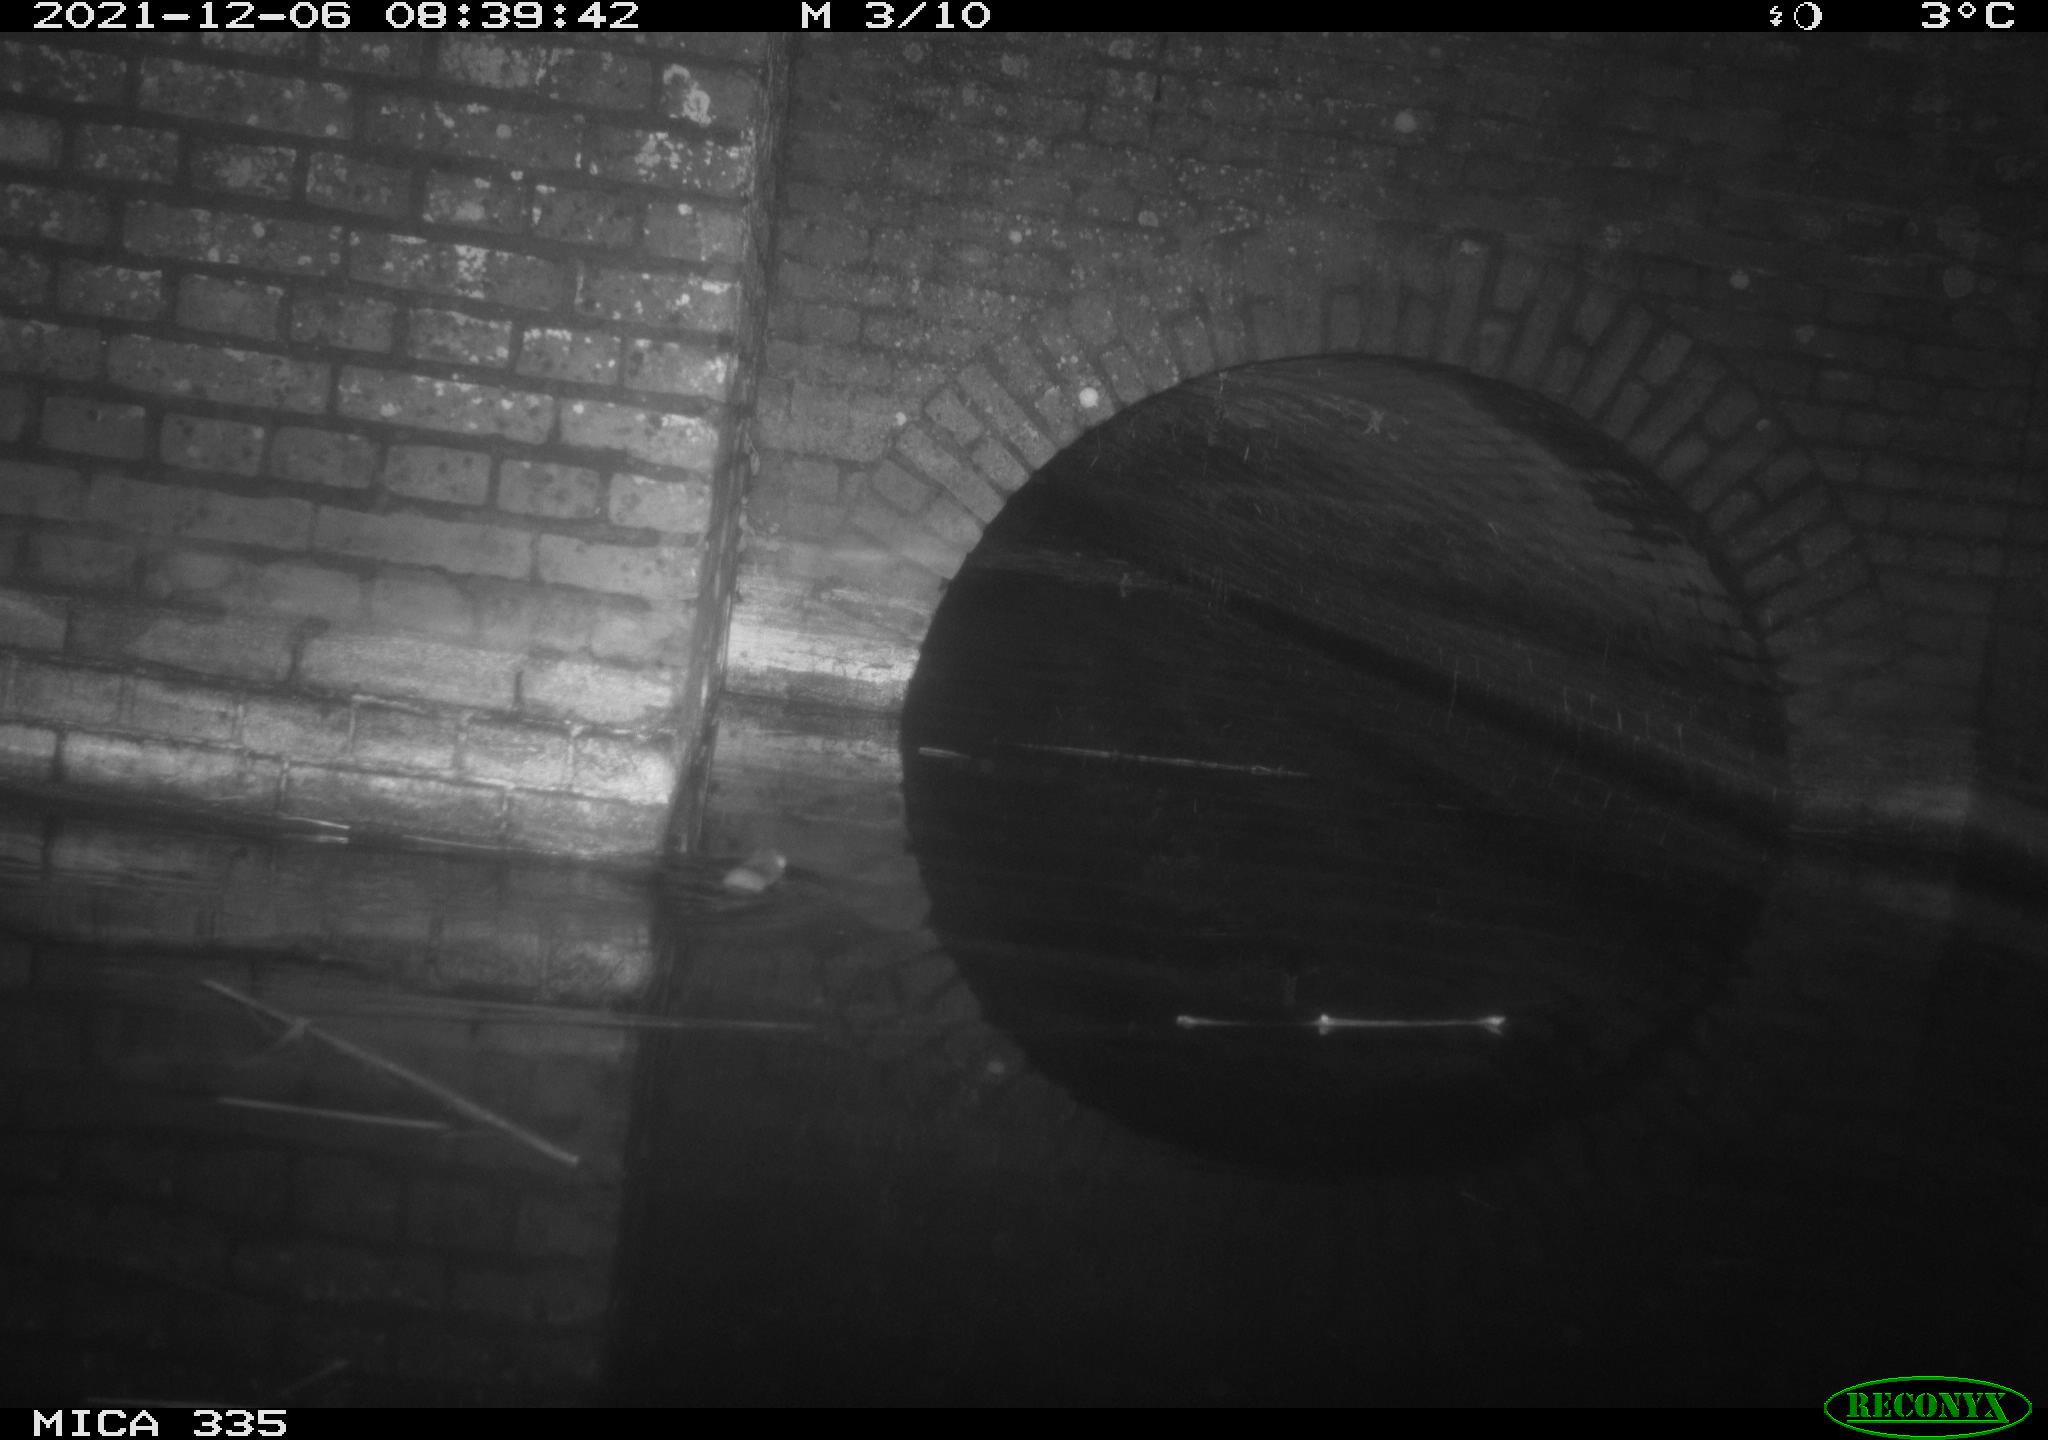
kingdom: Animalia
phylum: Chordata
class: Mammalia
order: Rodentia
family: Muridae
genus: Rattus
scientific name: Rattus norvegicus
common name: Brown rat
